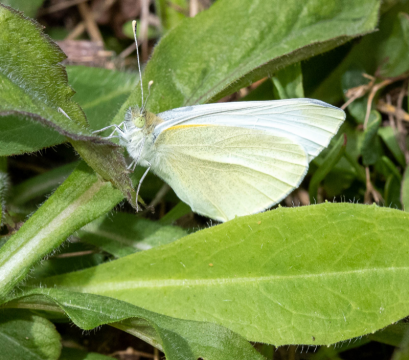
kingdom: Animalia
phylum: Arthropoda
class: Insecta
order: Lepidoptera
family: Pieridae
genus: Pieris
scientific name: Pieris rapae
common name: Cabbage White
